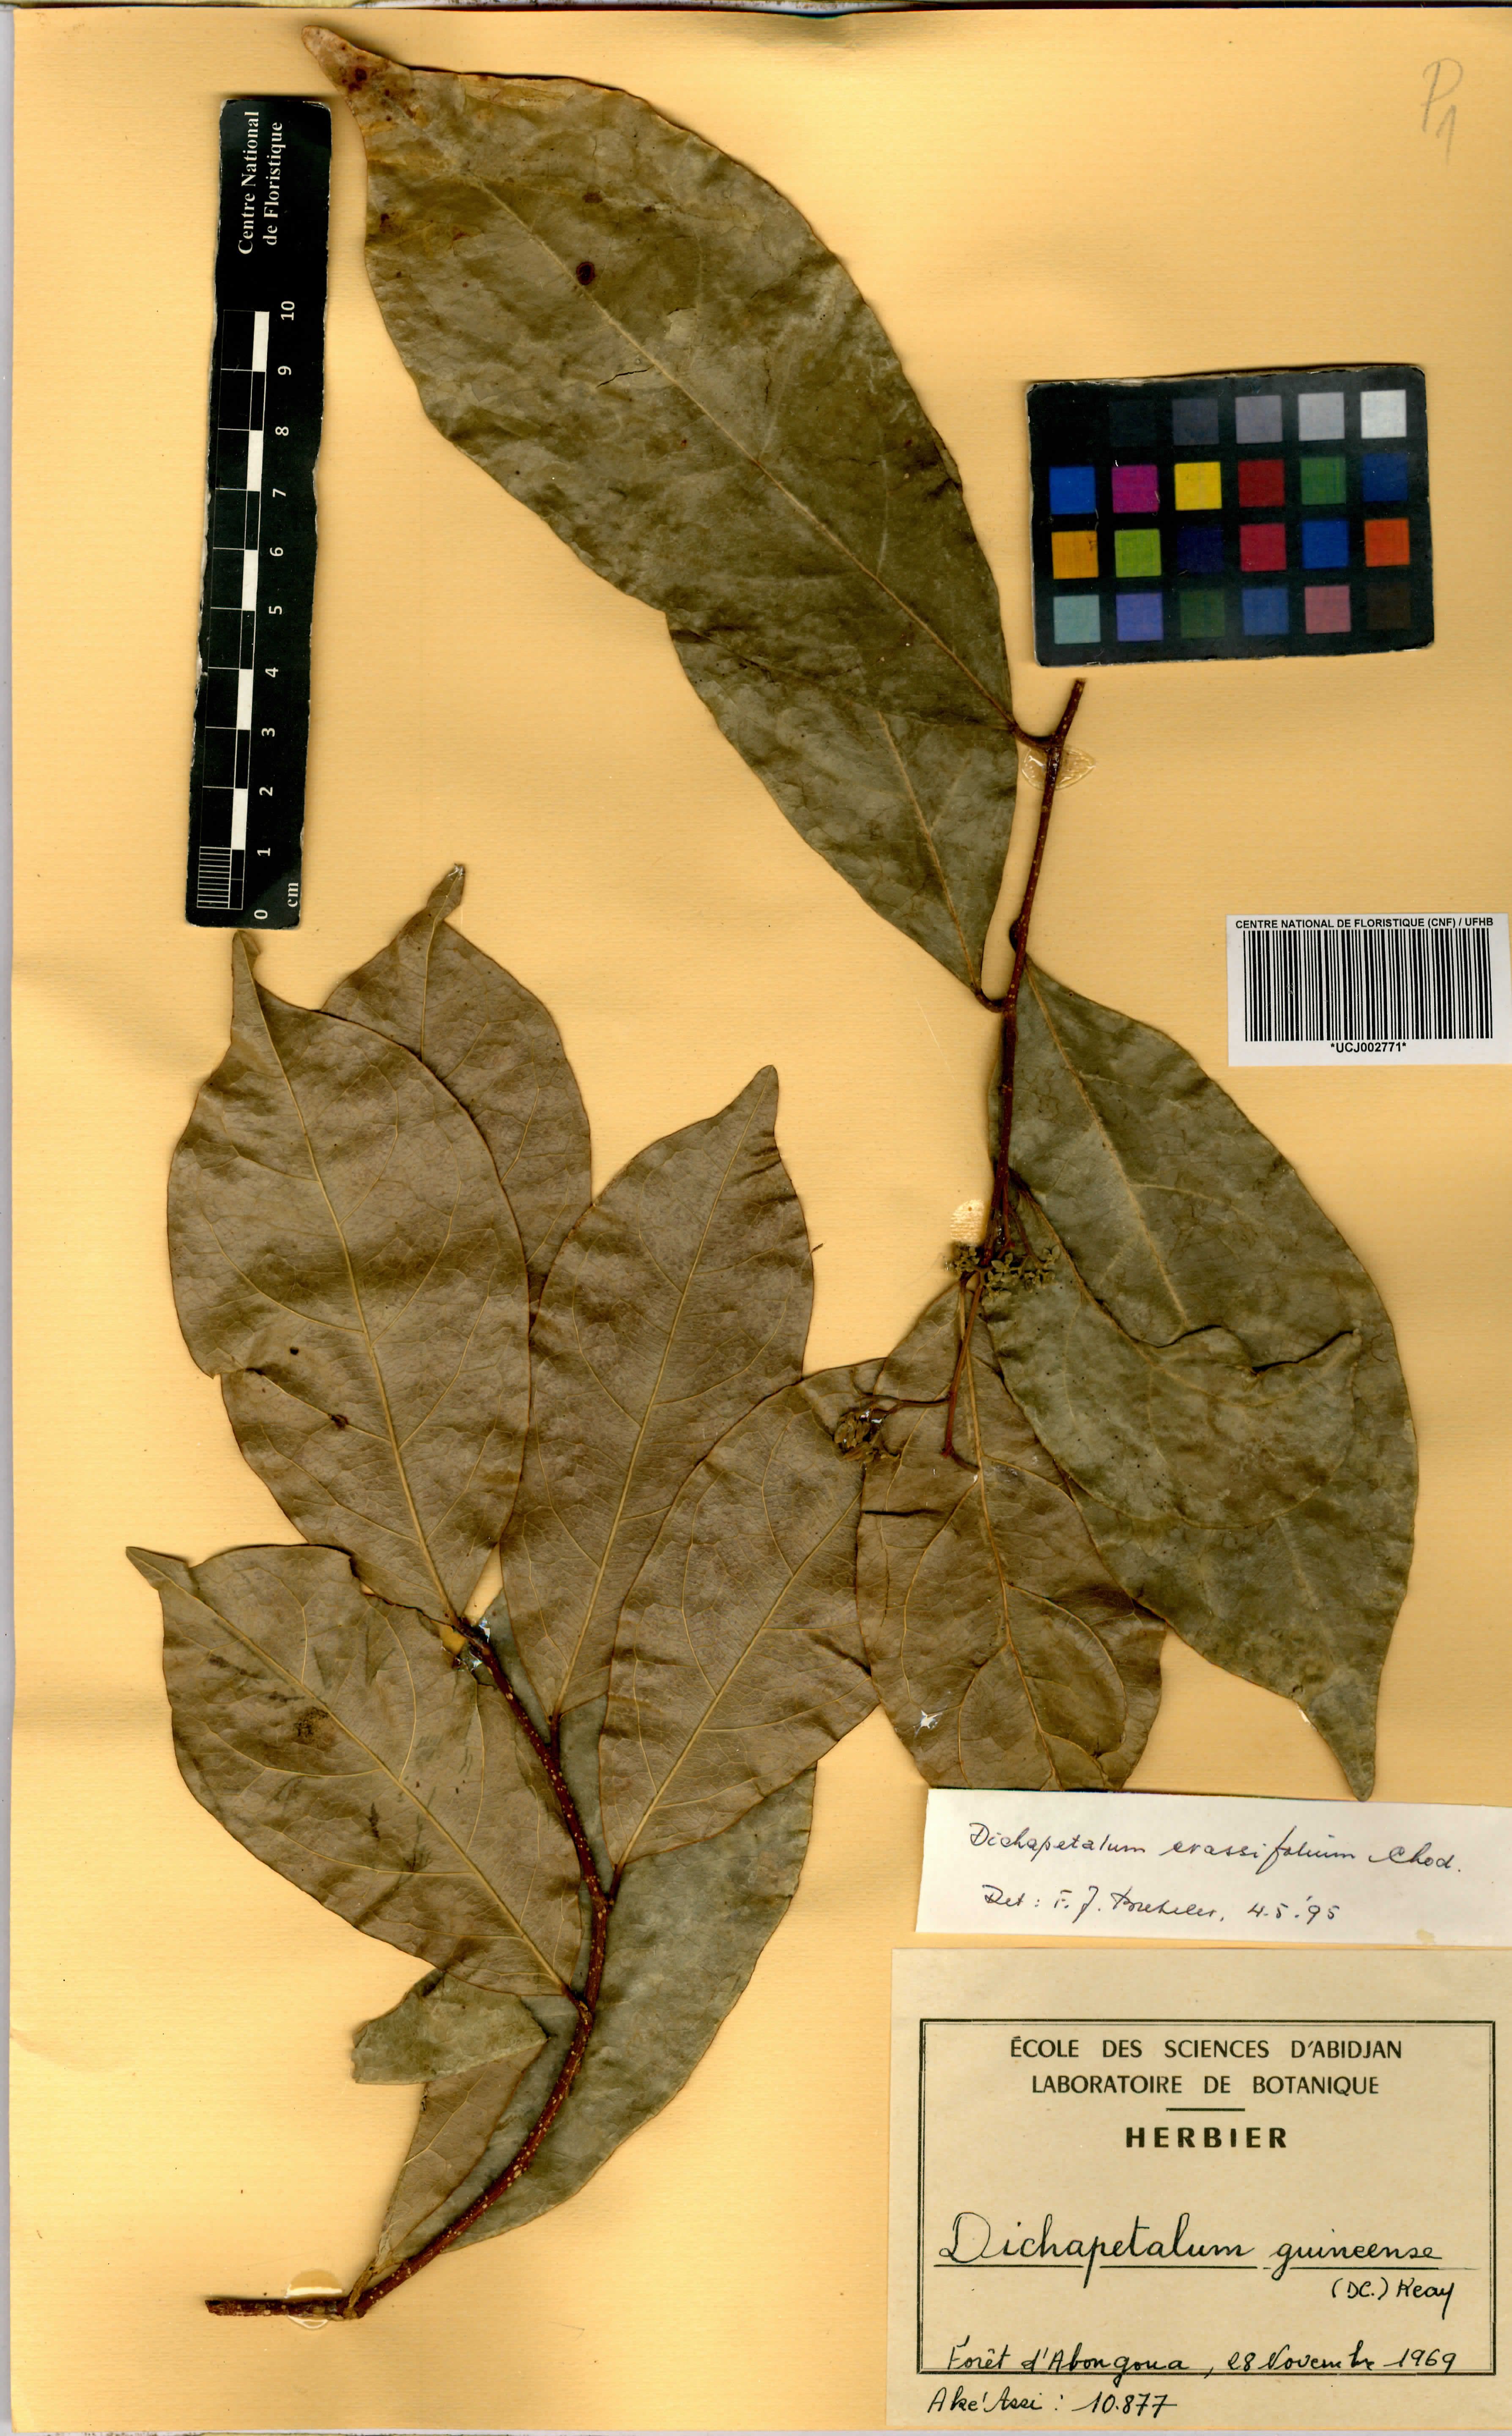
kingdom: Plantae
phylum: Tracheophyta
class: Magnoliopsida
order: Malpighiales
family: Dichapetalaceae
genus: Dichapetalum
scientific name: Dichapetalum madagascariense
